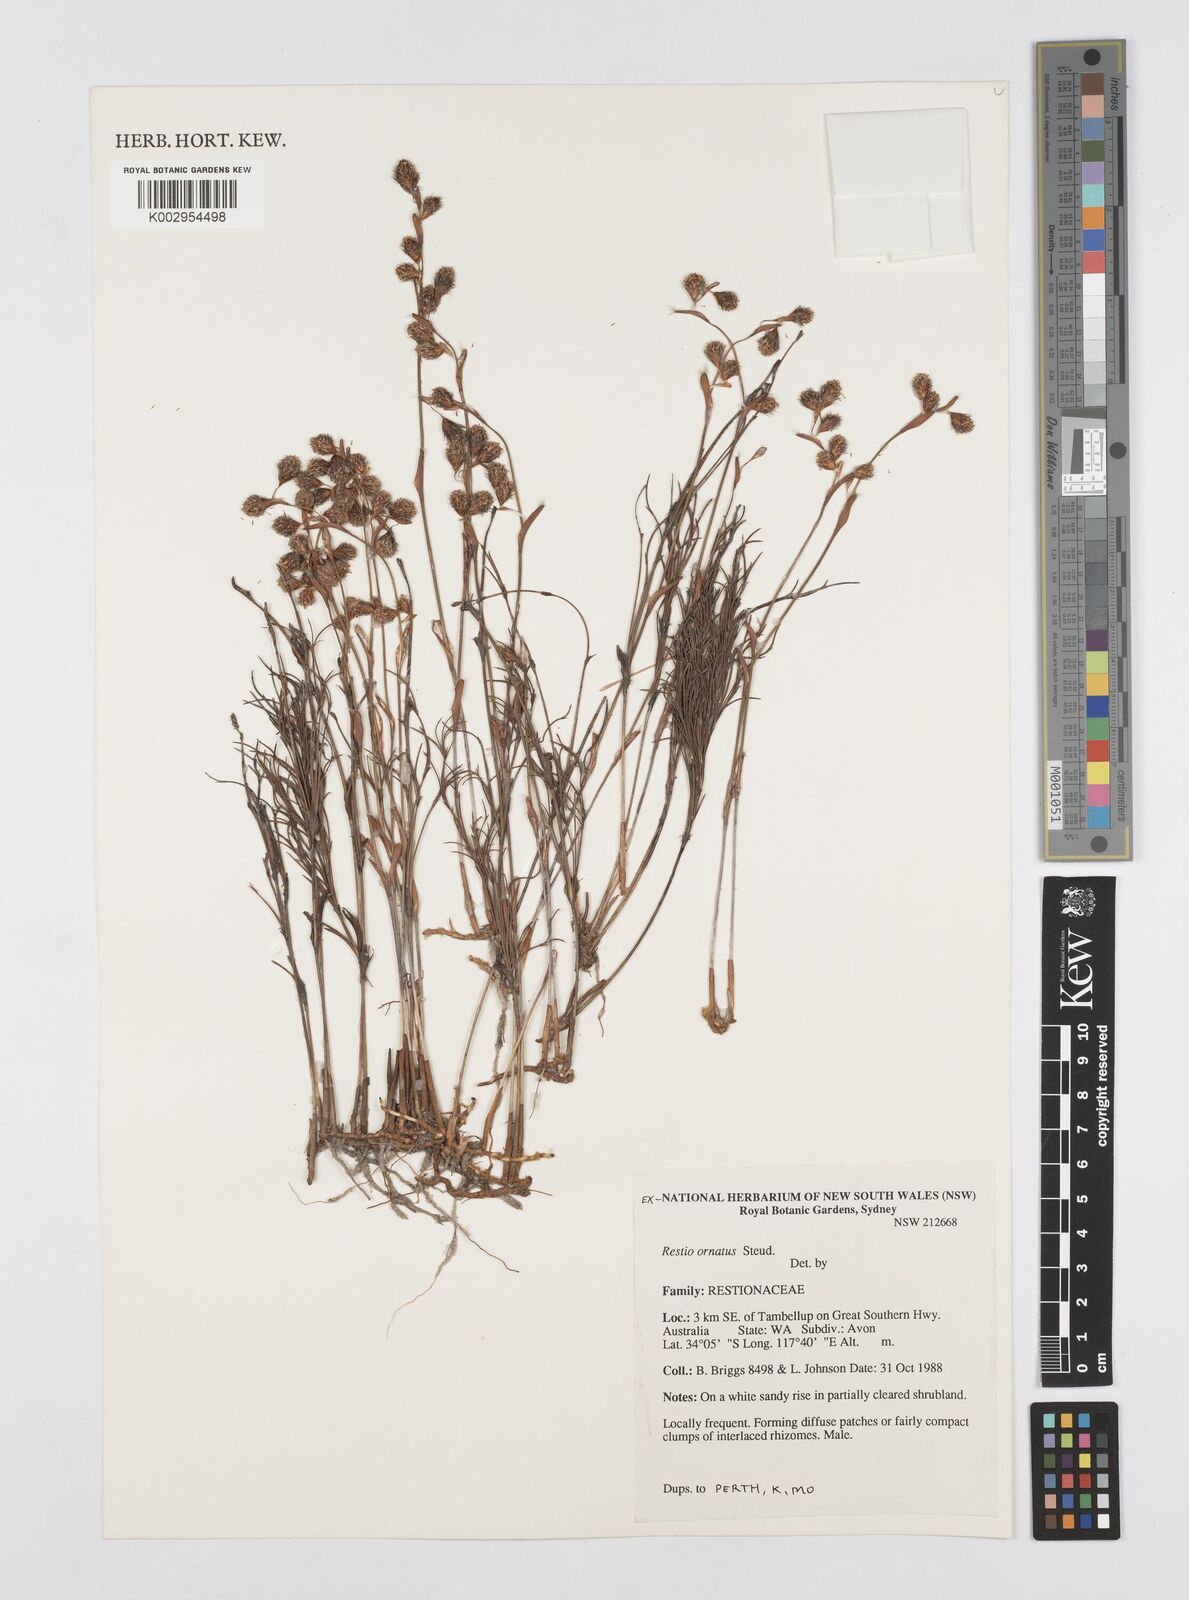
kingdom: Plantae
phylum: Tracheophyta
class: Liliopsida
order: Poales
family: Restionaceae
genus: Chordifex
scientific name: Chordifex ornatus
